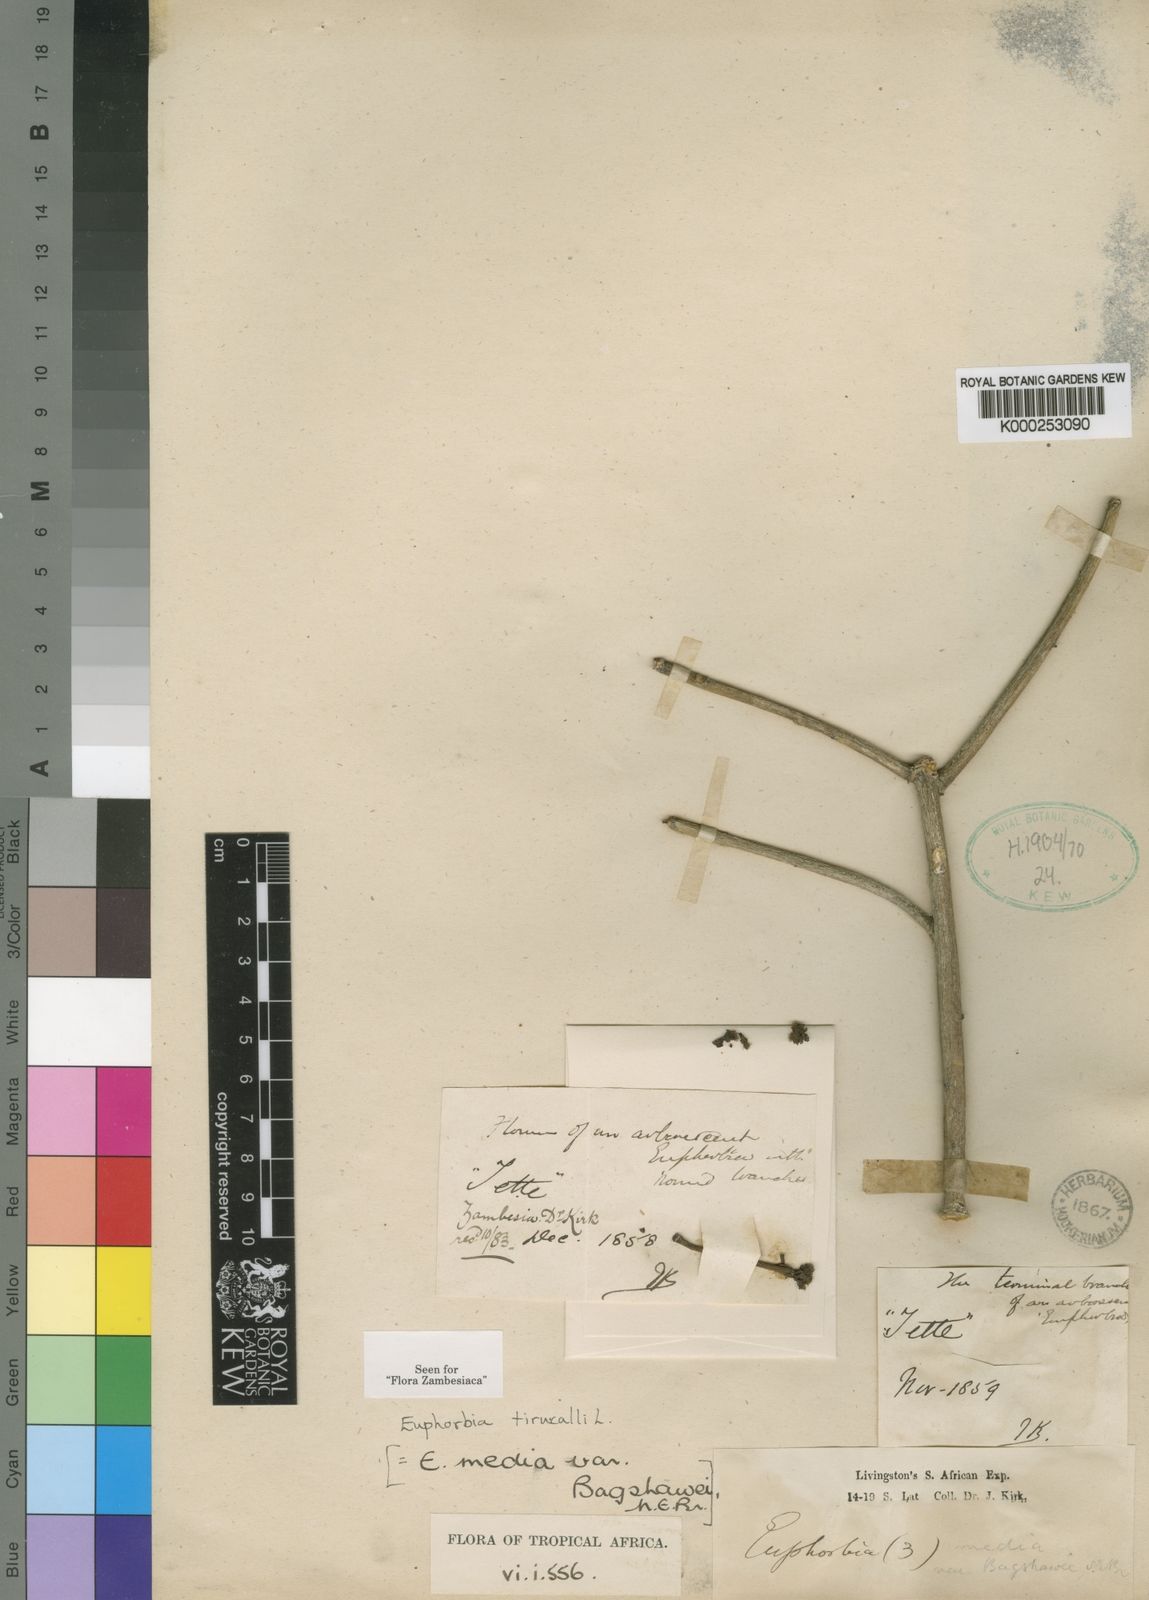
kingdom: Plantae
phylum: Tracheophyta
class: Magnoliopsida
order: Malpighiales
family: Euphorbiaceae
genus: Euphorbia
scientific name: Euphorbia tirucalli
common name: Indiantree spurge
